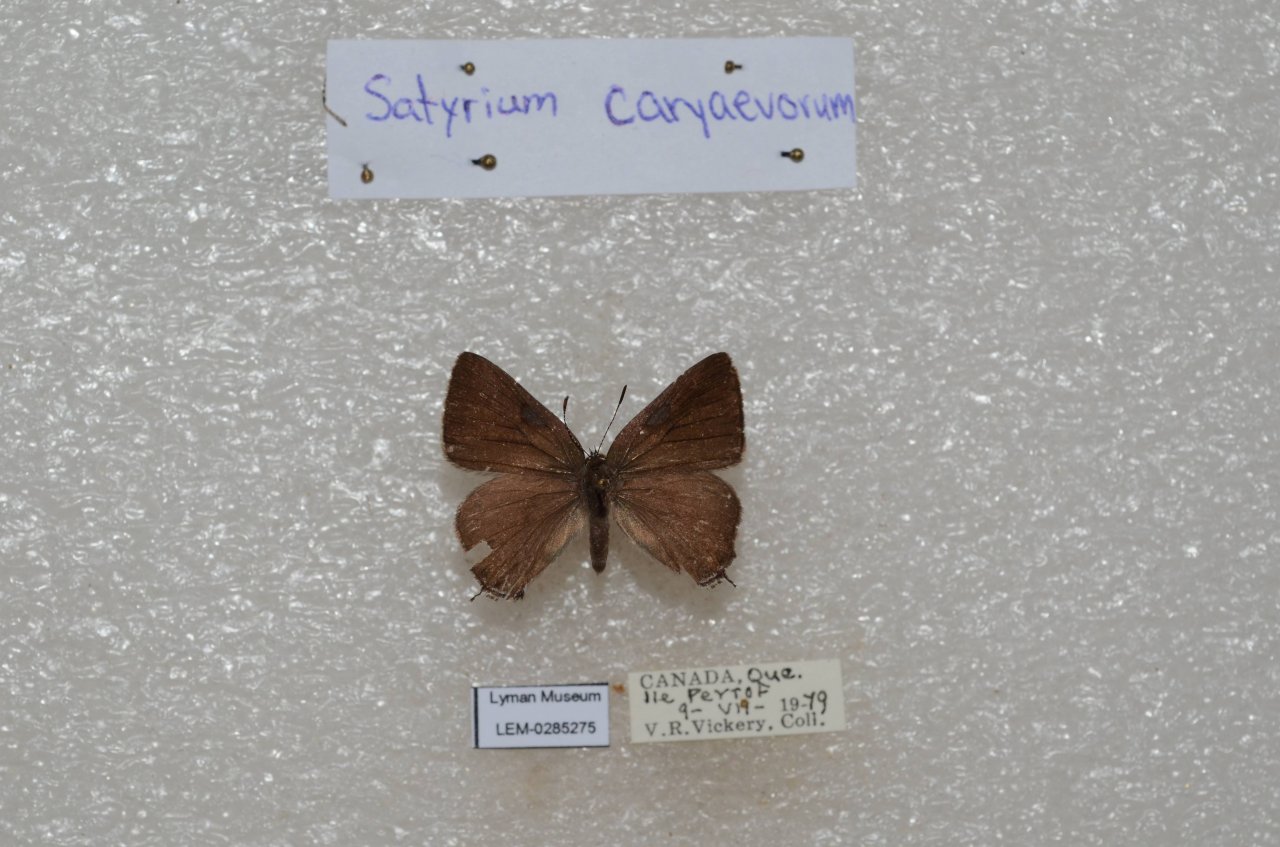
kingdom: Animalia
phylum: Arthropoda
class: Insecta
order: Lepidoptera
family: Lycaenidae
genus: Strymon
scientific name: Strymon caryaevorus
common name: Hickory Hairstreak
